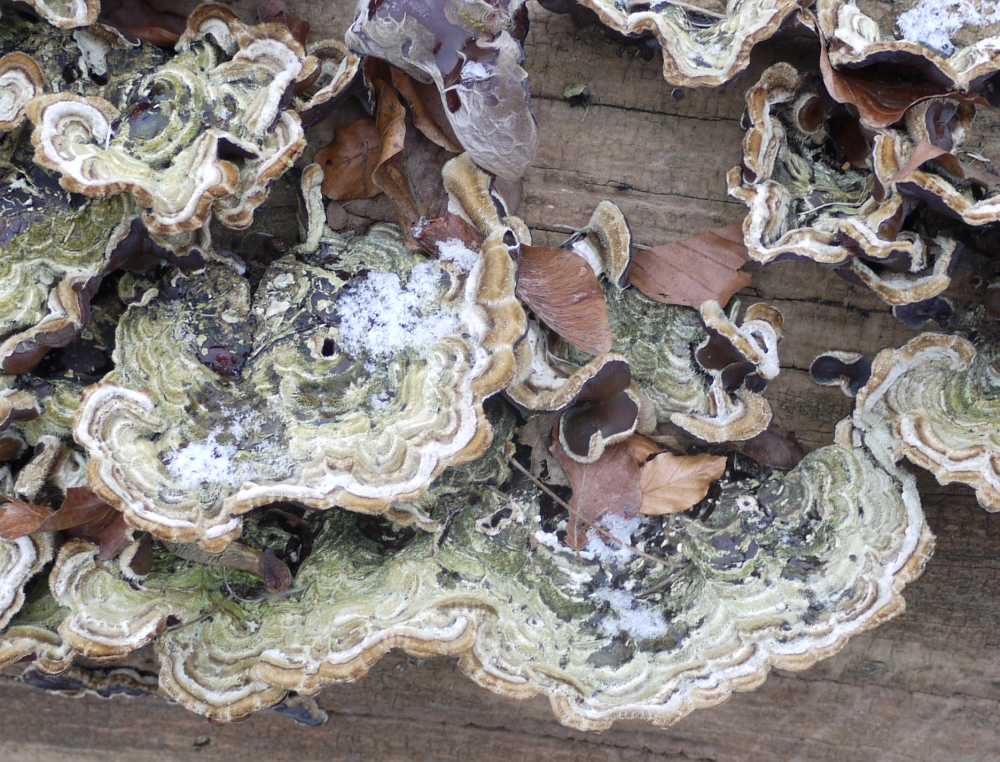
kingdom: Fungi
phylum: Basidiomycota
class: Agaricomycetes
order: Auriculariales
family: Auriculariaceae
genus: Auricularia
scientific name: Auricularia mesenterica
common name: håret judasøre
